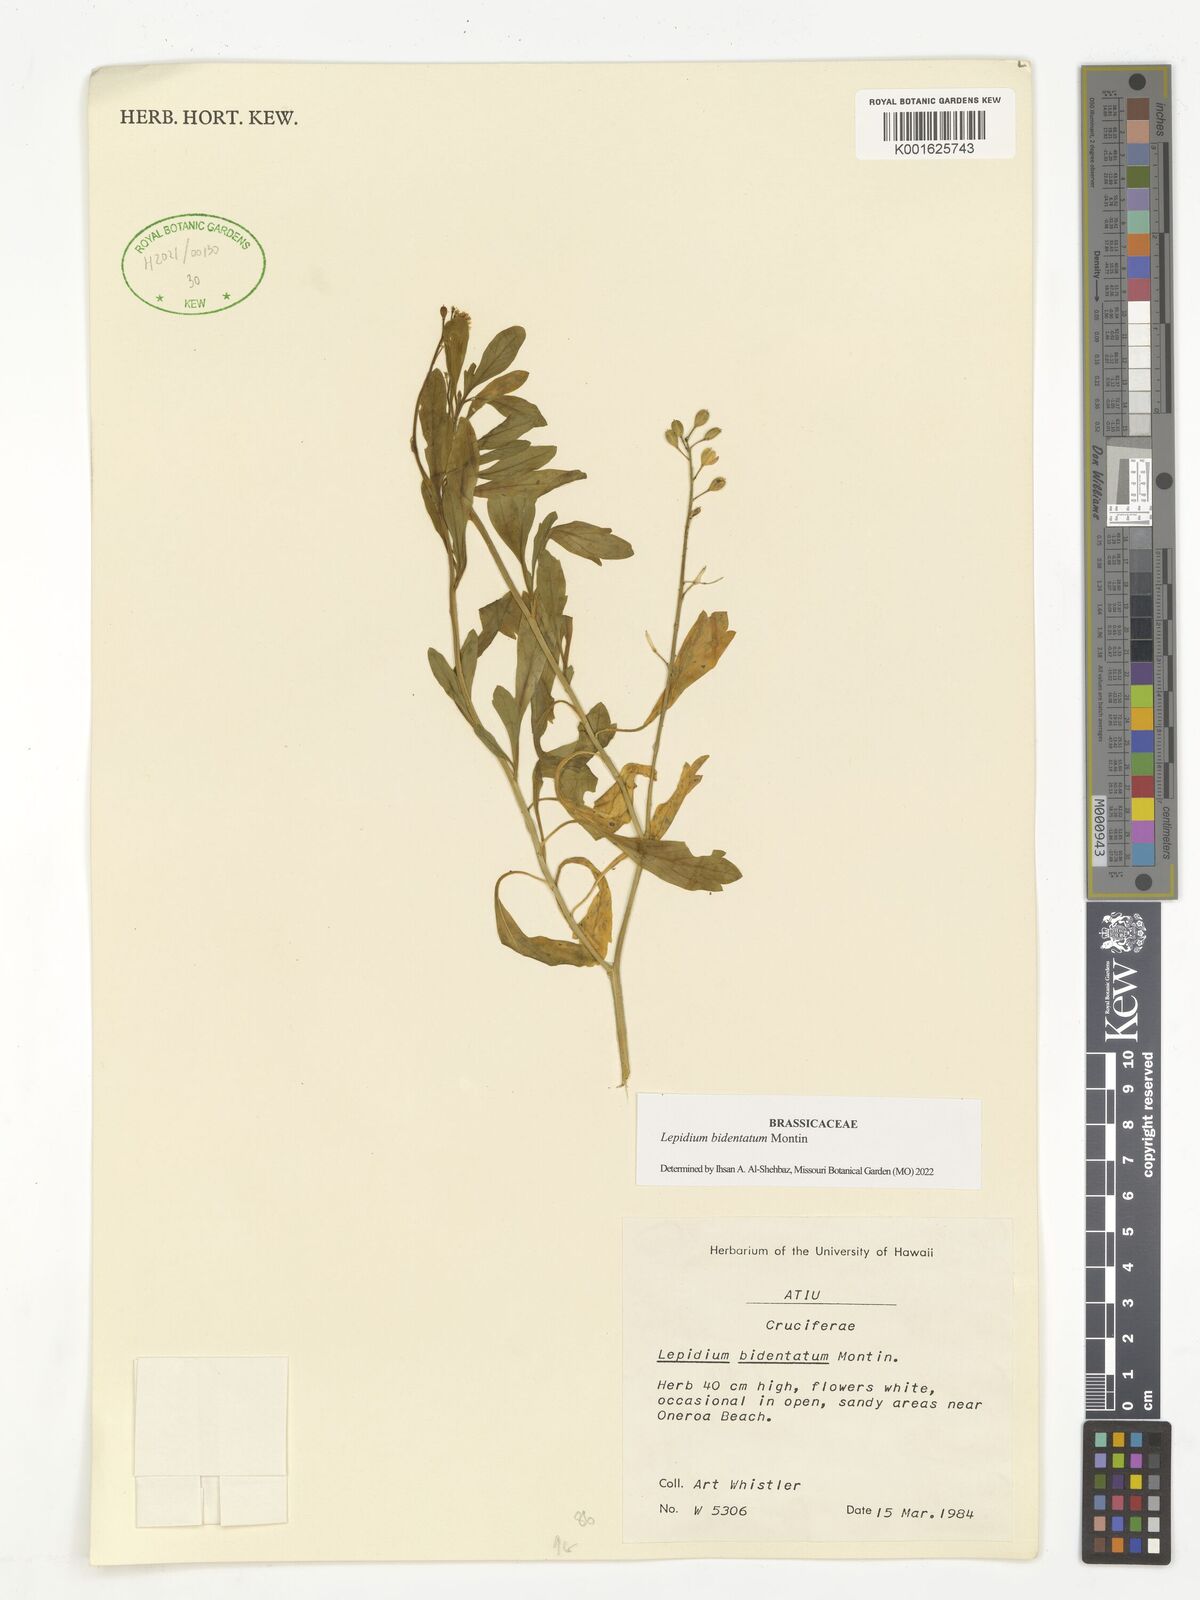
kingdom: Plantae
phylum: Tracheophyta
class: Magnoliopsida
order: Brassicales
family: Brassicaceae
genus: Lepidium
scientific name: Lepidium bidentatum
